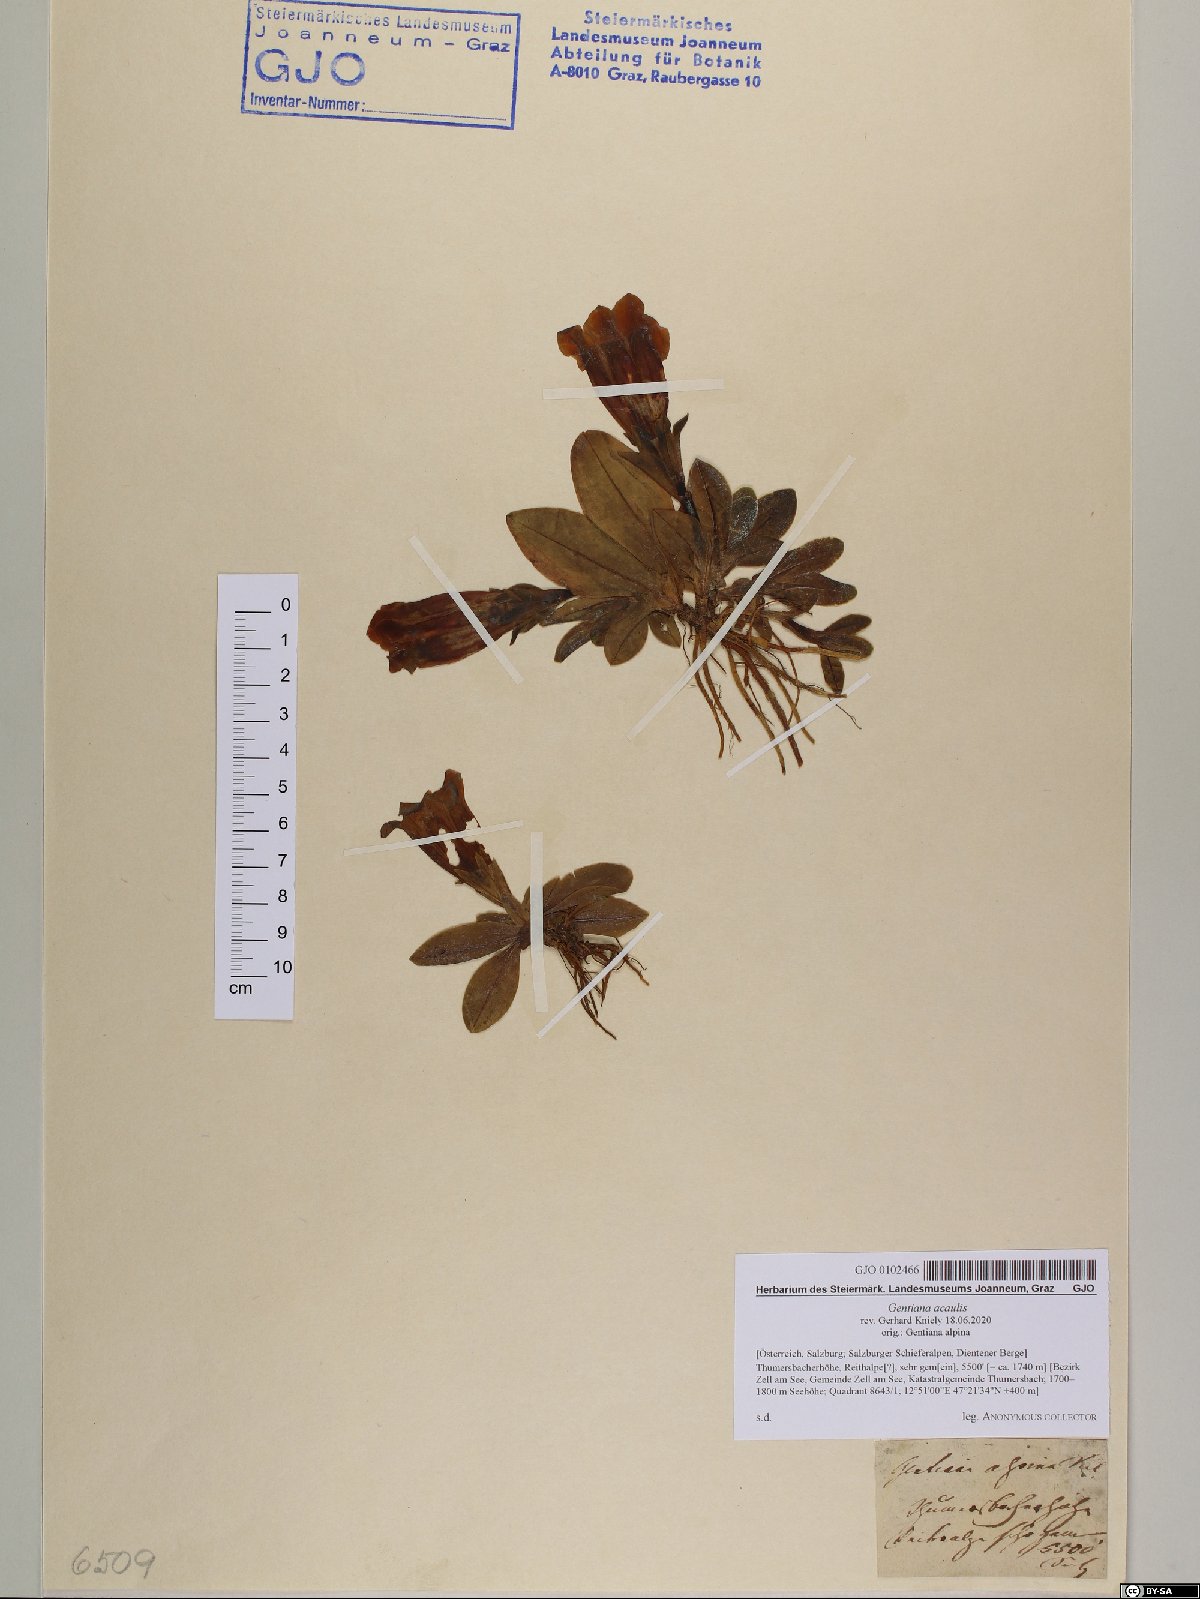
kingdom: Plantae
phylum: Tracheophyta
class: Magnoliopsida
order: Gentianales
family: Gentianaceae
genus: Gentiana
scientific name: Gentiana acaulis
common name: Trumpet gentian
